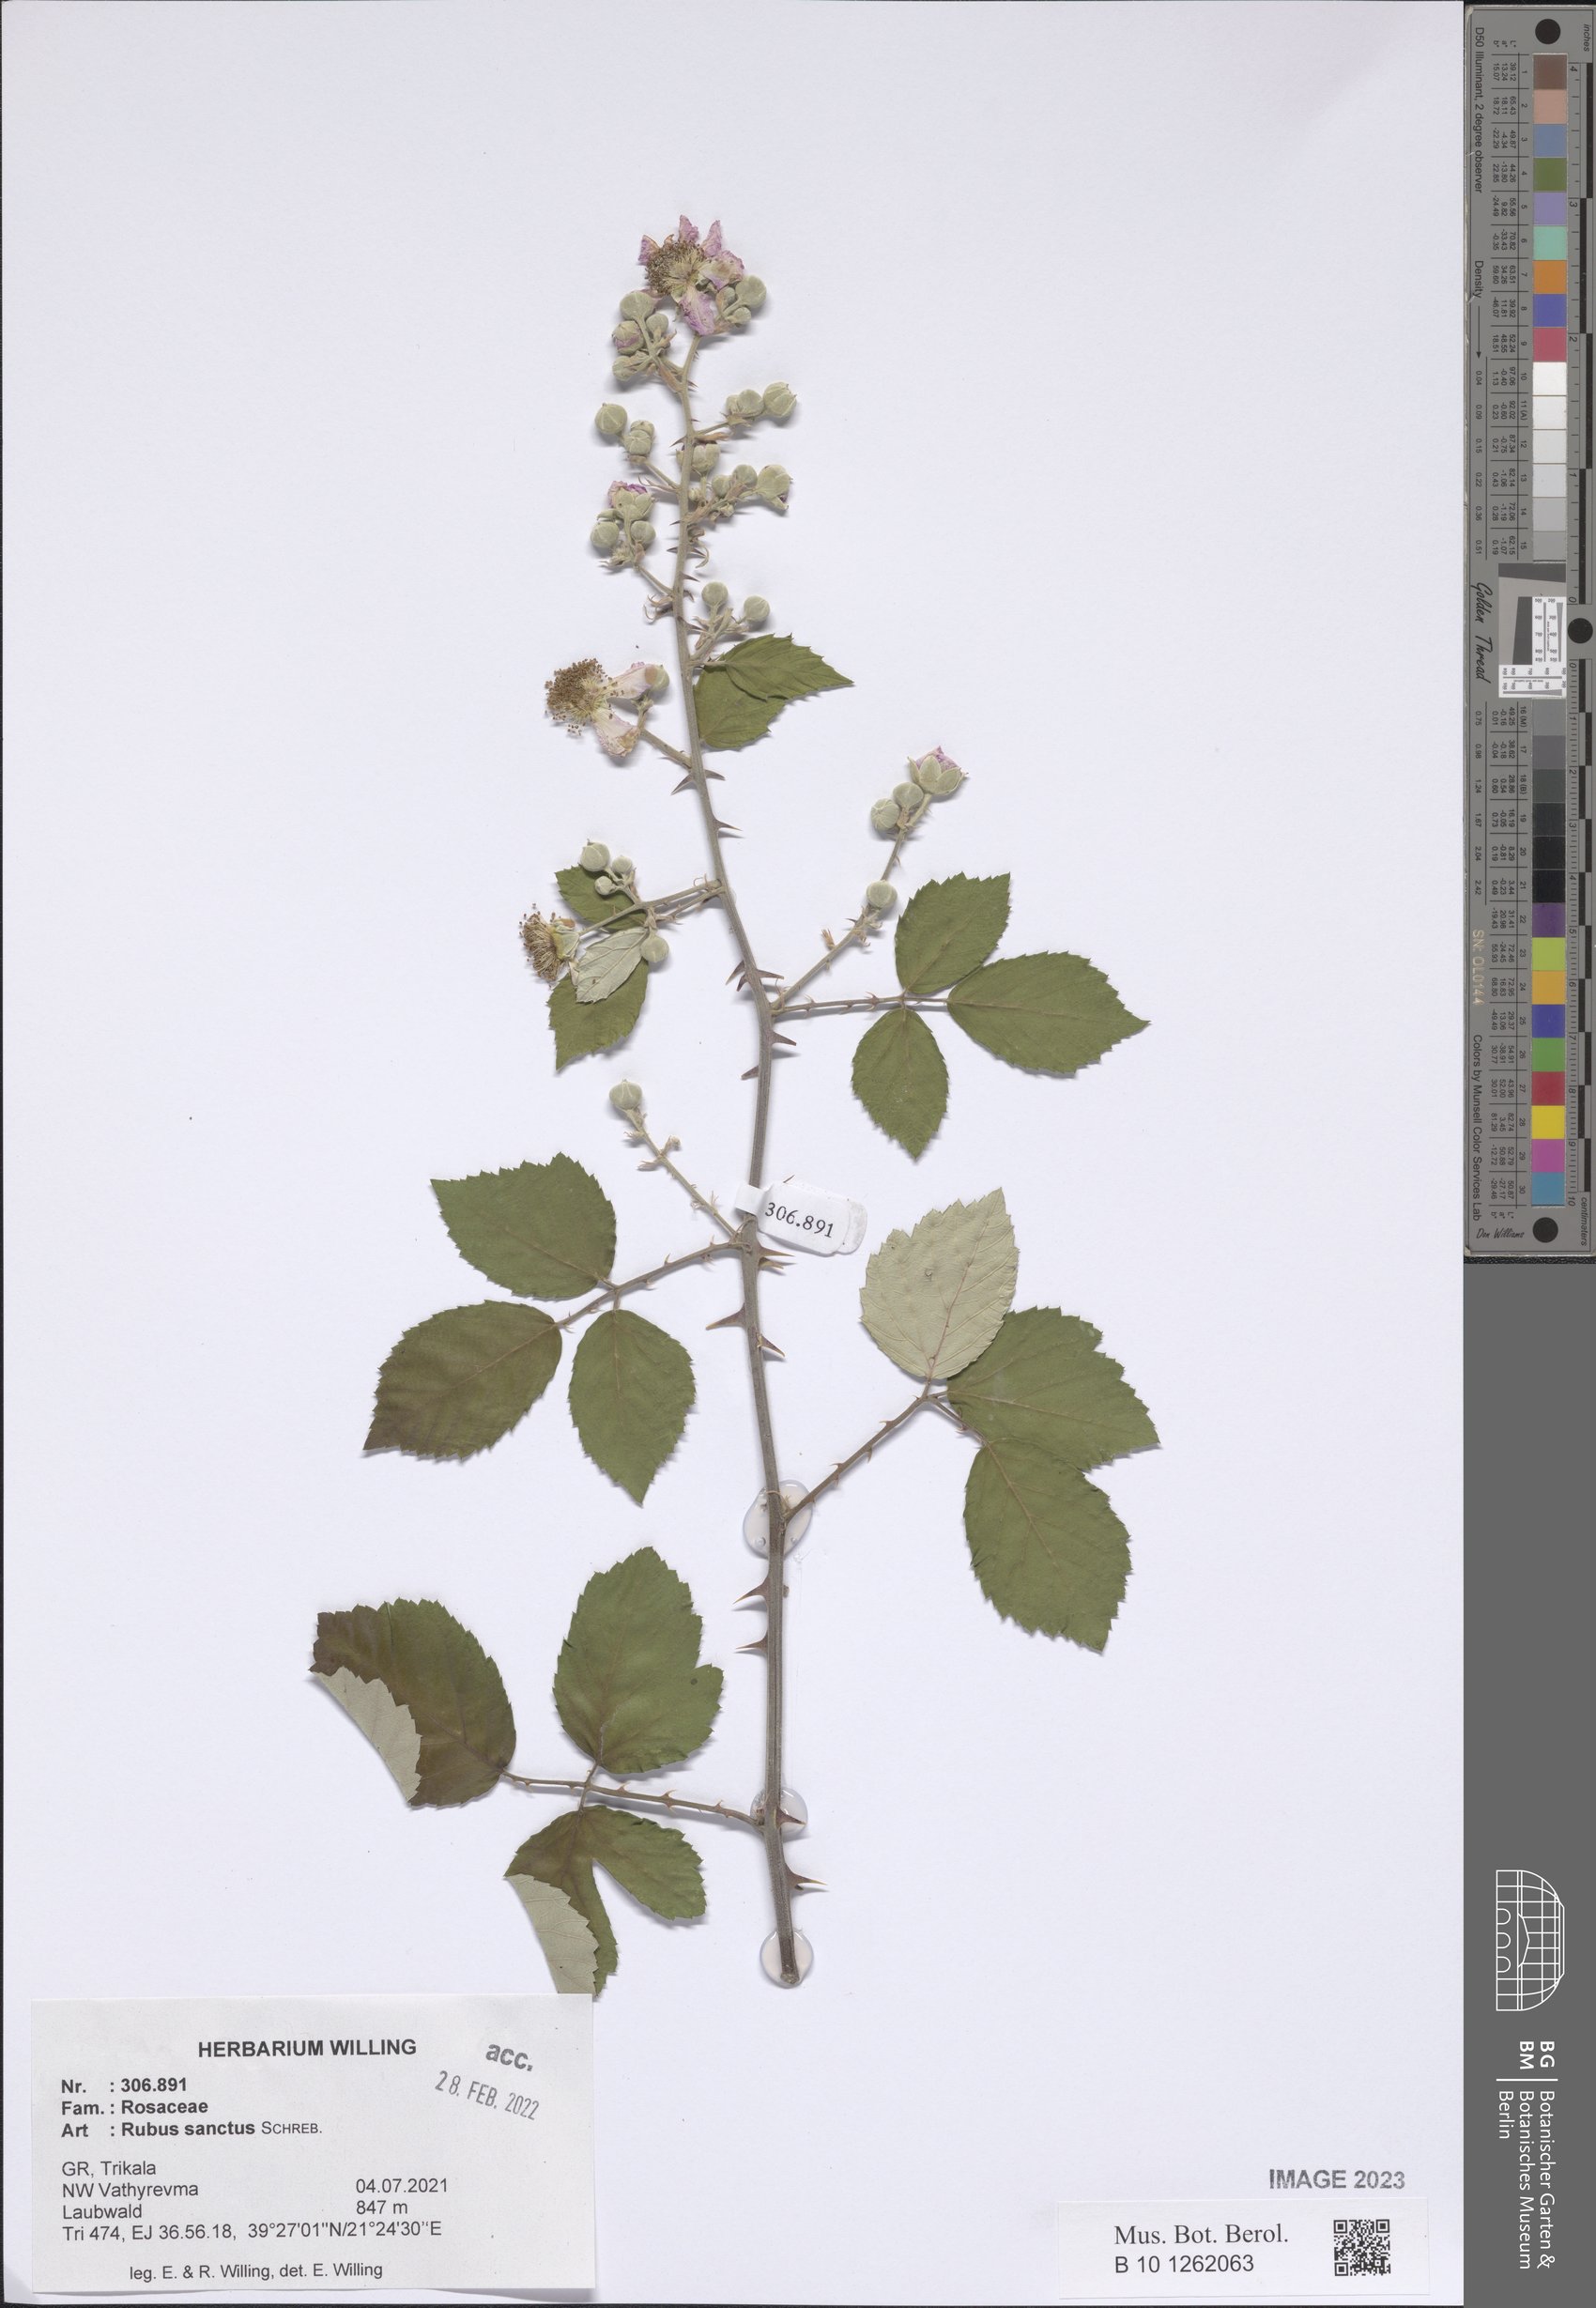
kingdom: Plantae
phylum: Tracheophyta
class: Magnoliopsida
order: Rosales
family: Rosaceae
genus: Rubus
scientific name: Rubus sanctus
